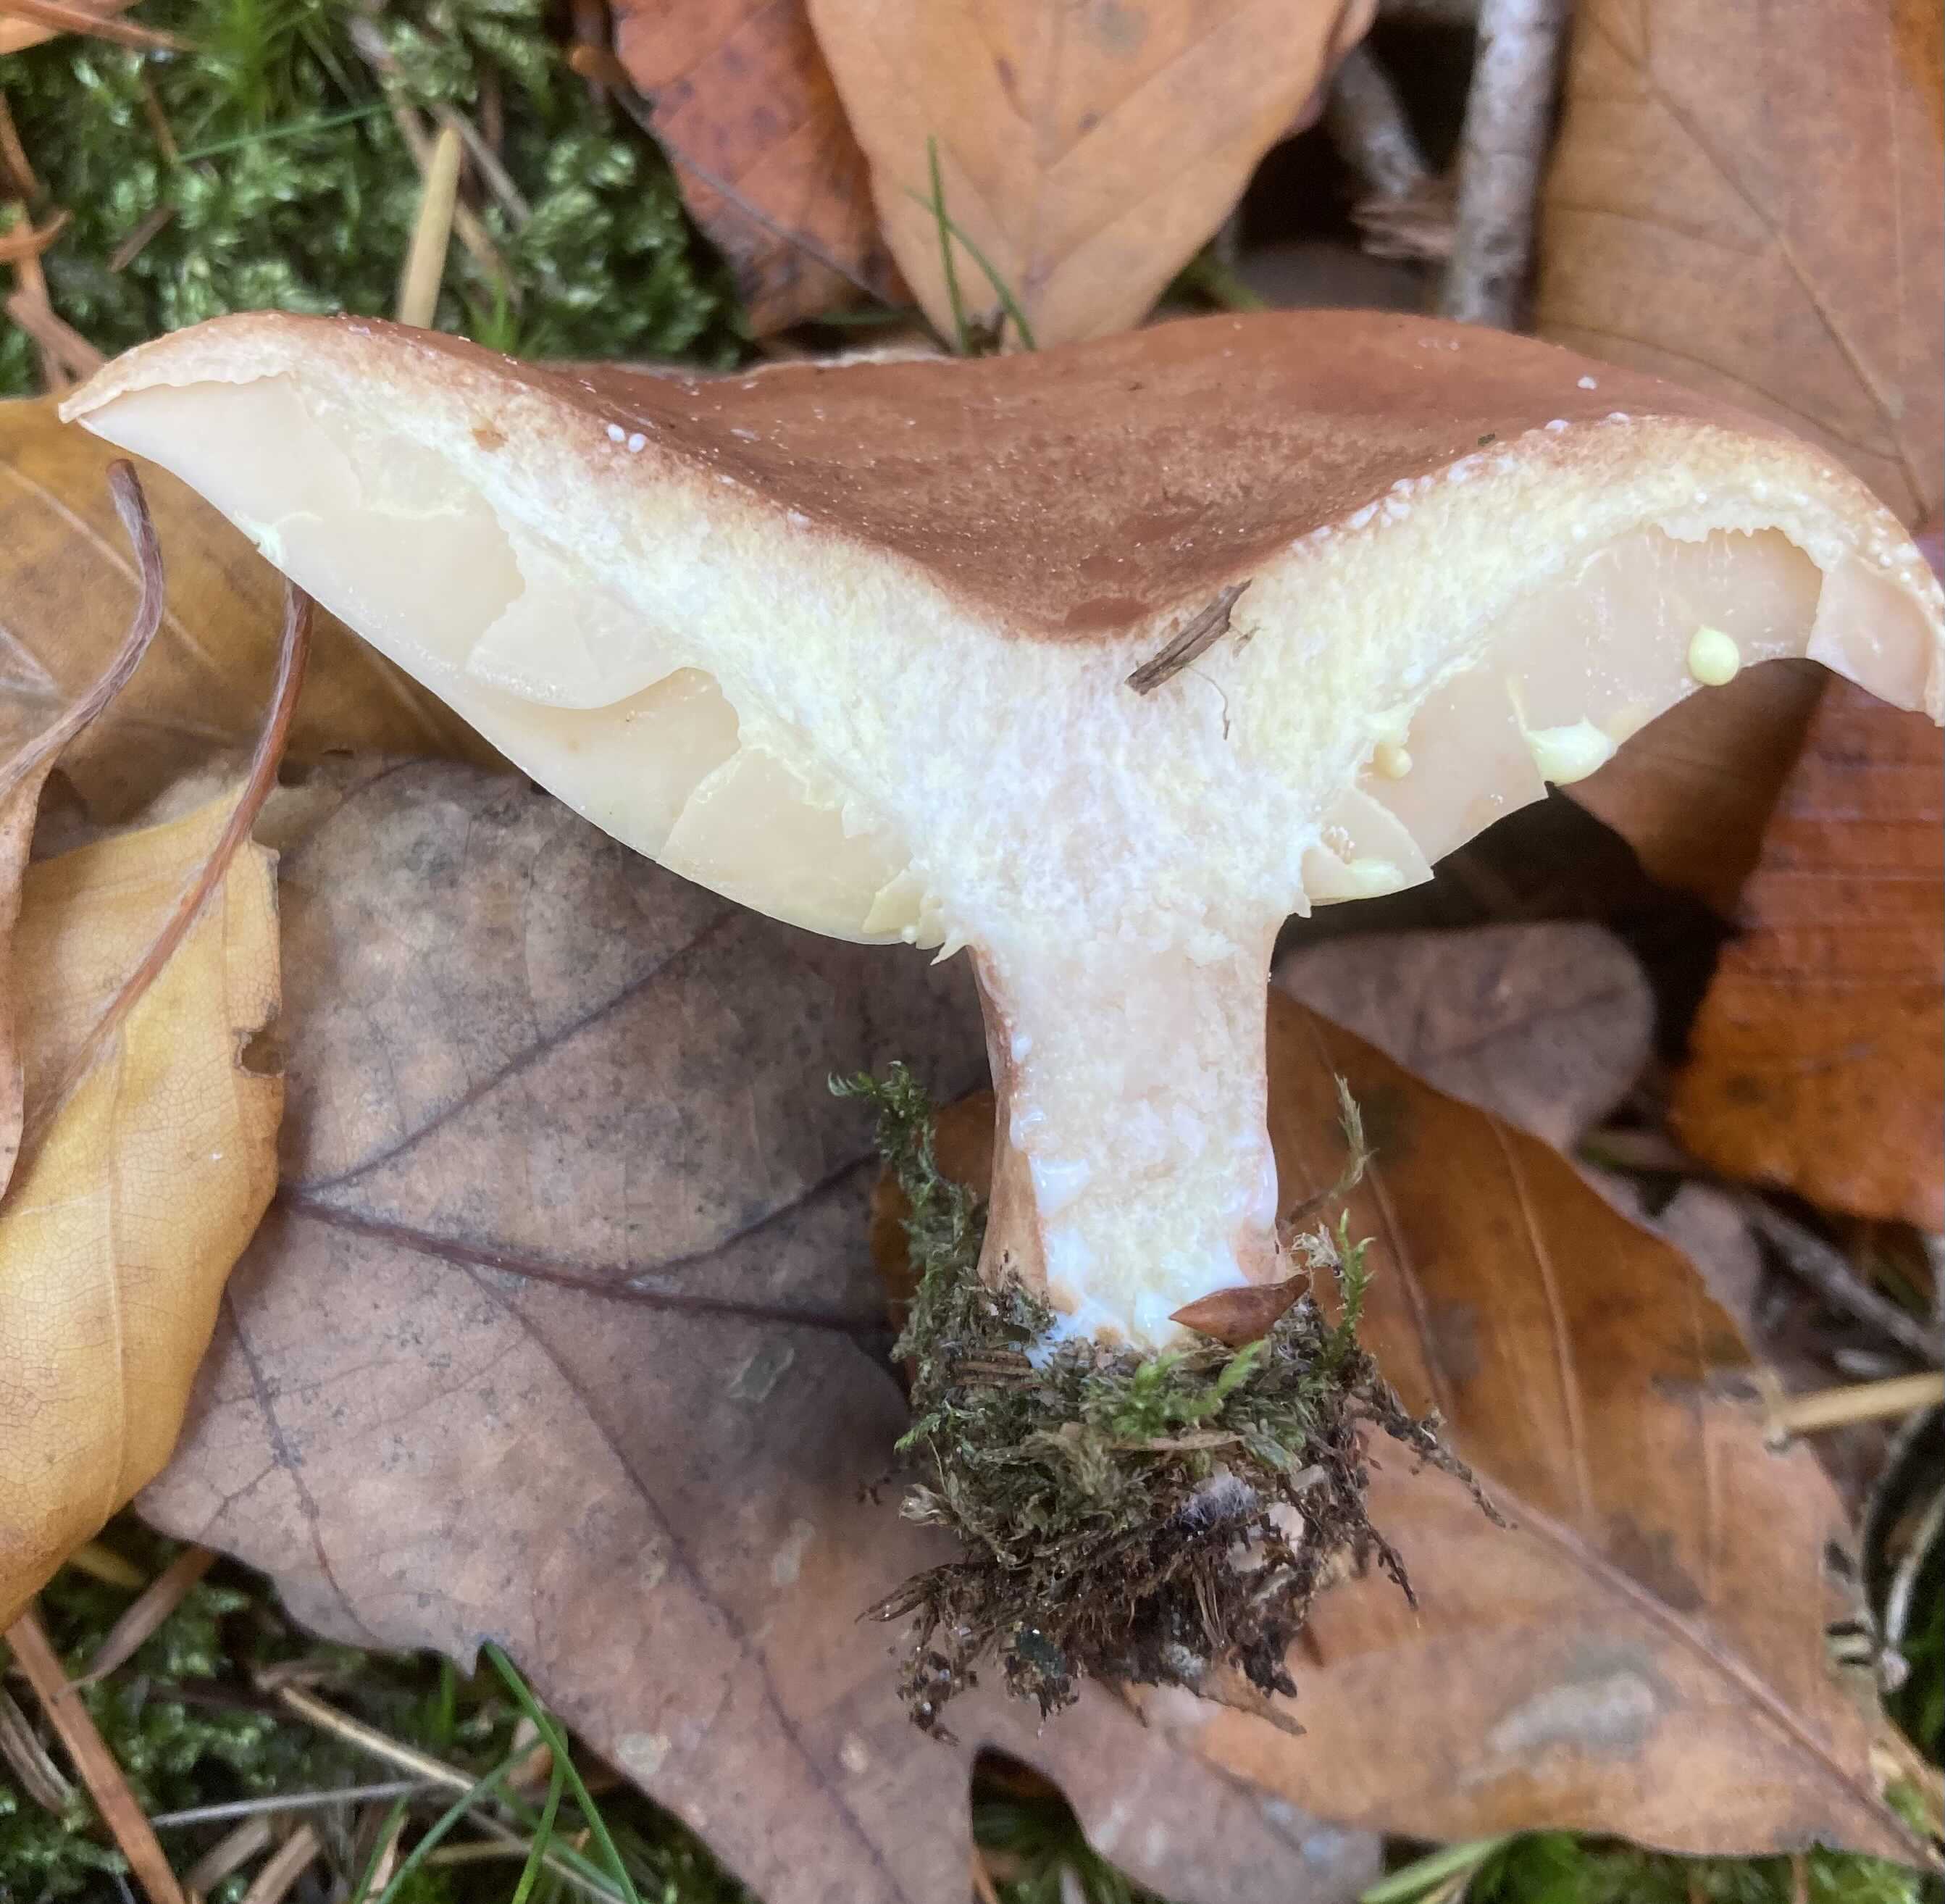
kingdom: Fungi
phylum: Basidiomycota
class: Agaricomycetes
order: Russulales
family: Russulaceae
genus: Lactarius
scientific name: Lactarius chrysorrheus
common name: svovlmælket mælkehat
